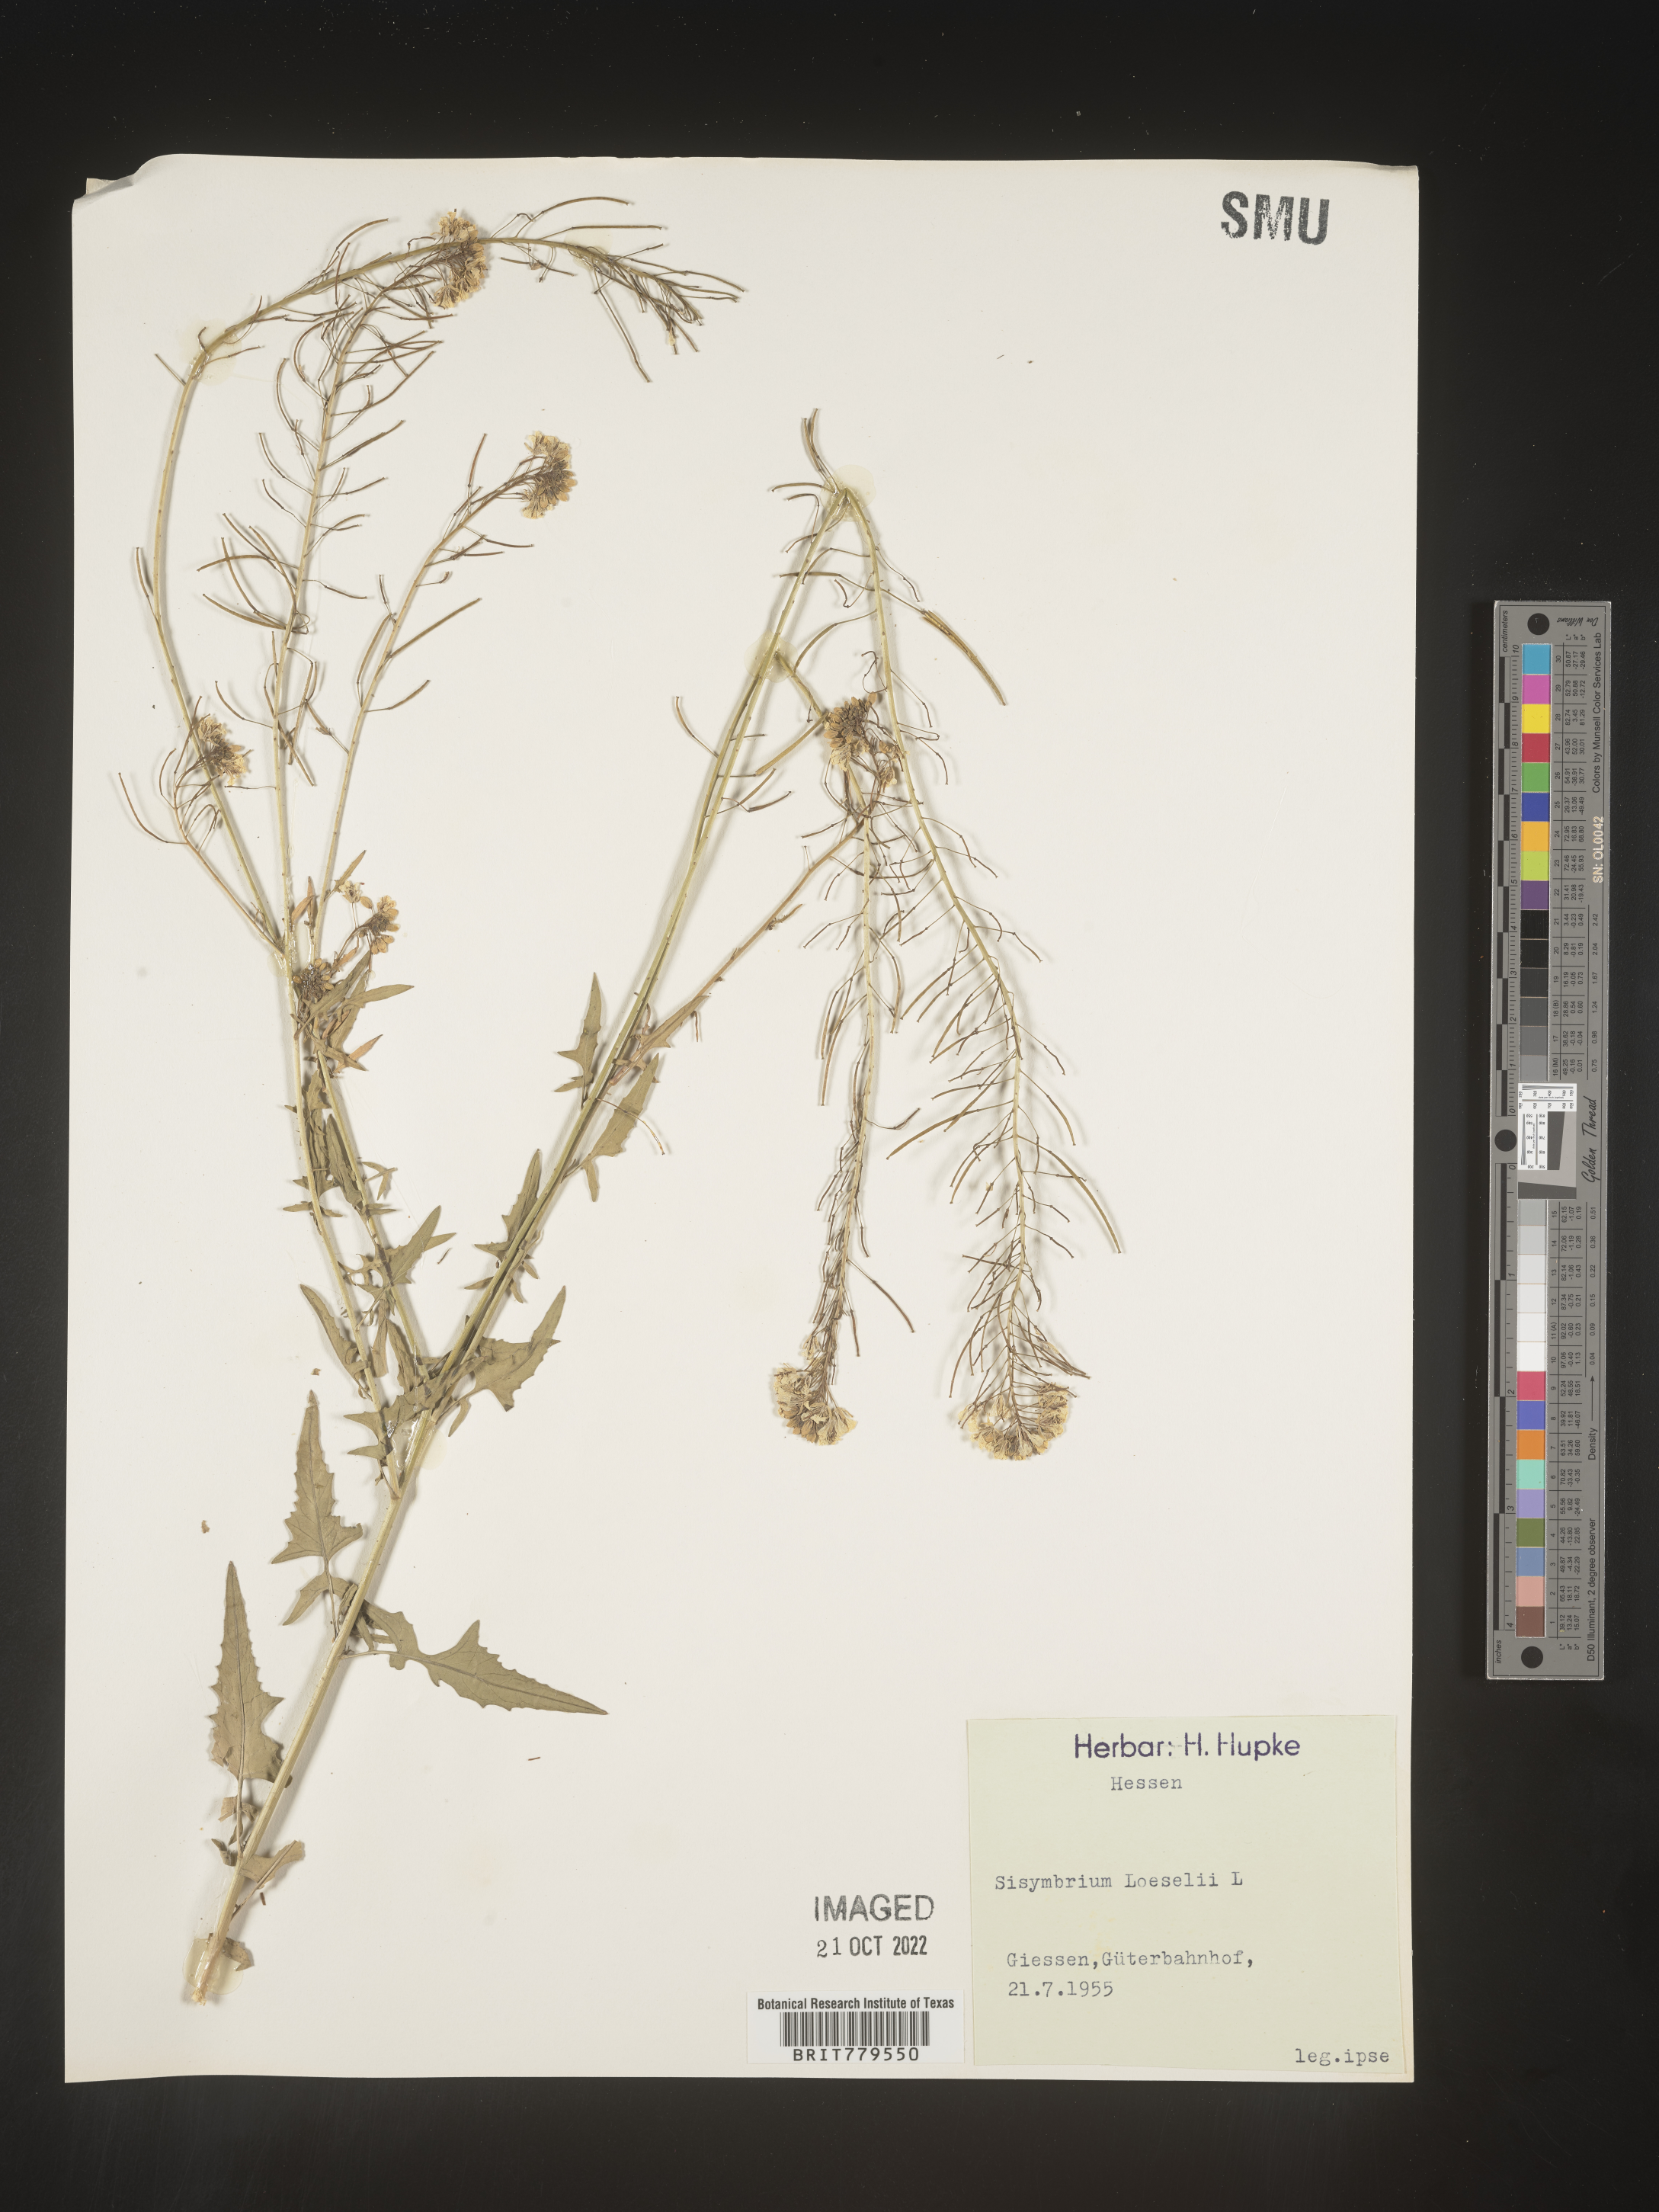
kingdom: Plantae
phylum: Tracheophyta
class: Magnoliopsida
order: Brassicales
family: Brassicaceae
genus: Sisymbrium
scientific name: Sisymbrium
